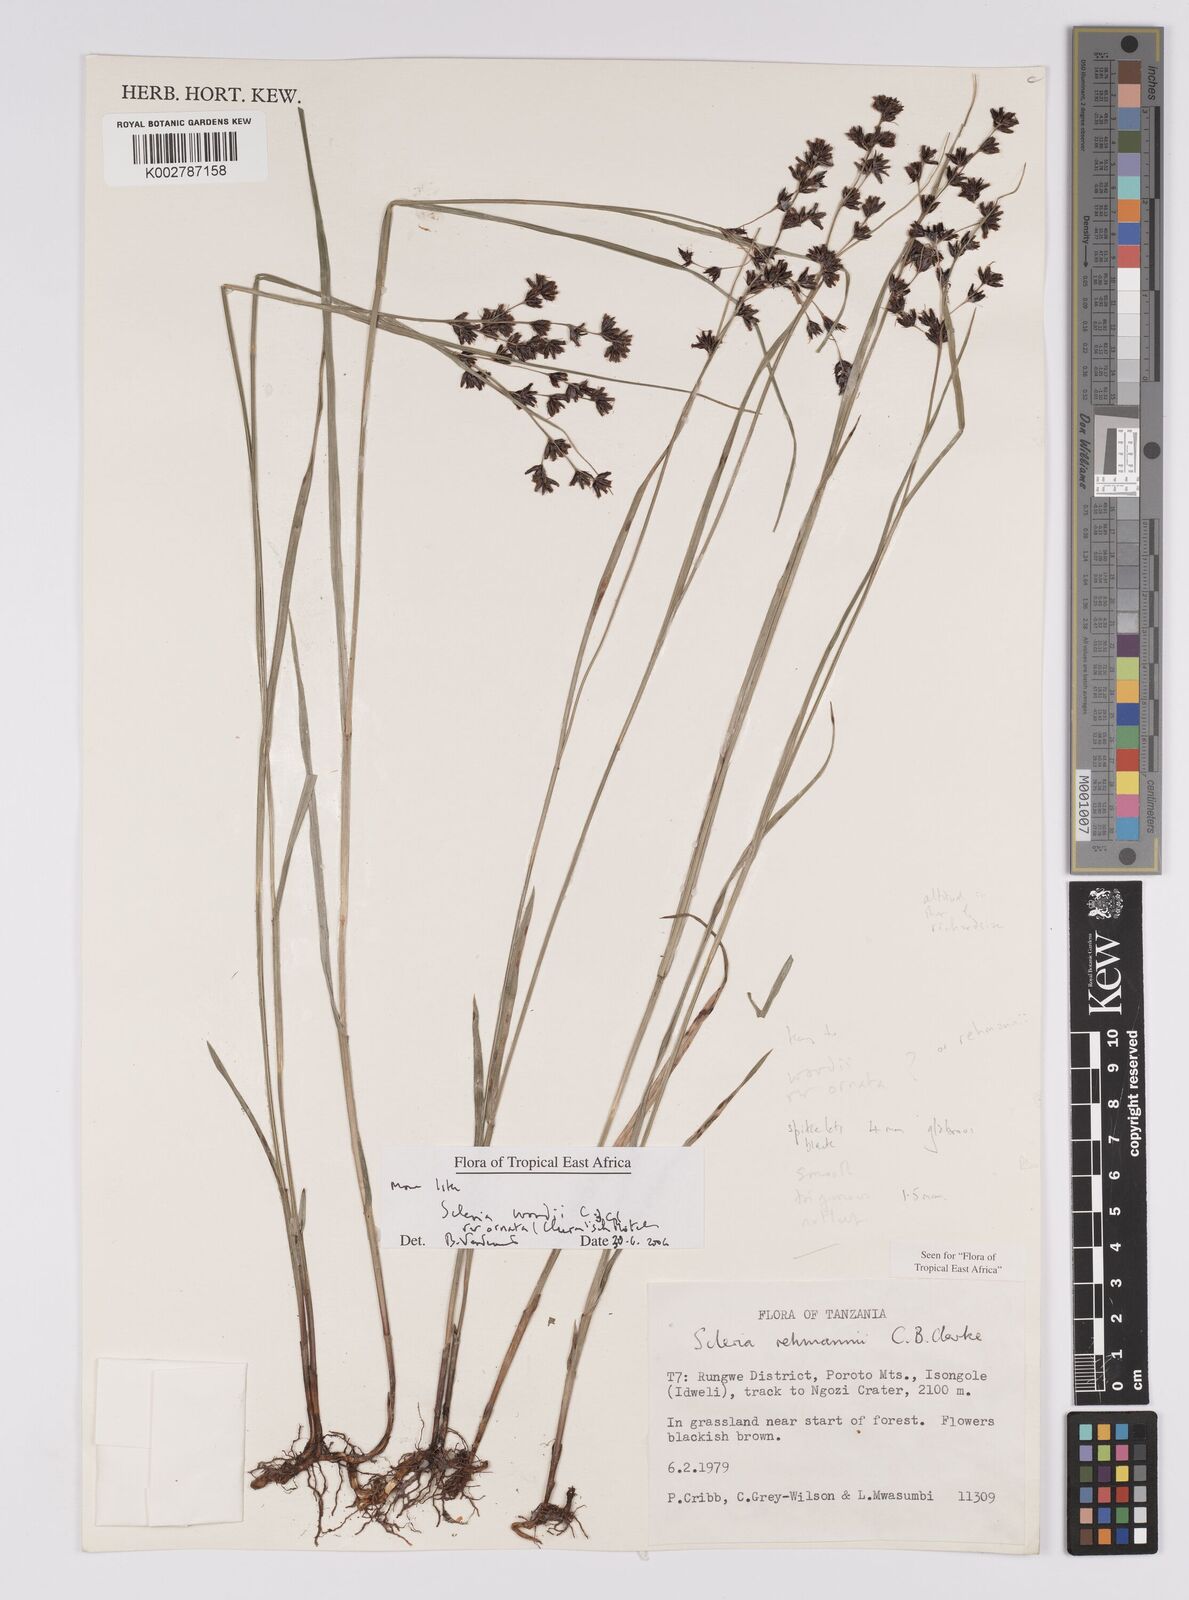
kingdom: Plantae
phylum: Tracheophyta
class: Liliopsida
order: Poales
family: Cyperaceae
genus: Scleria
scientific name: Scleria woodii
